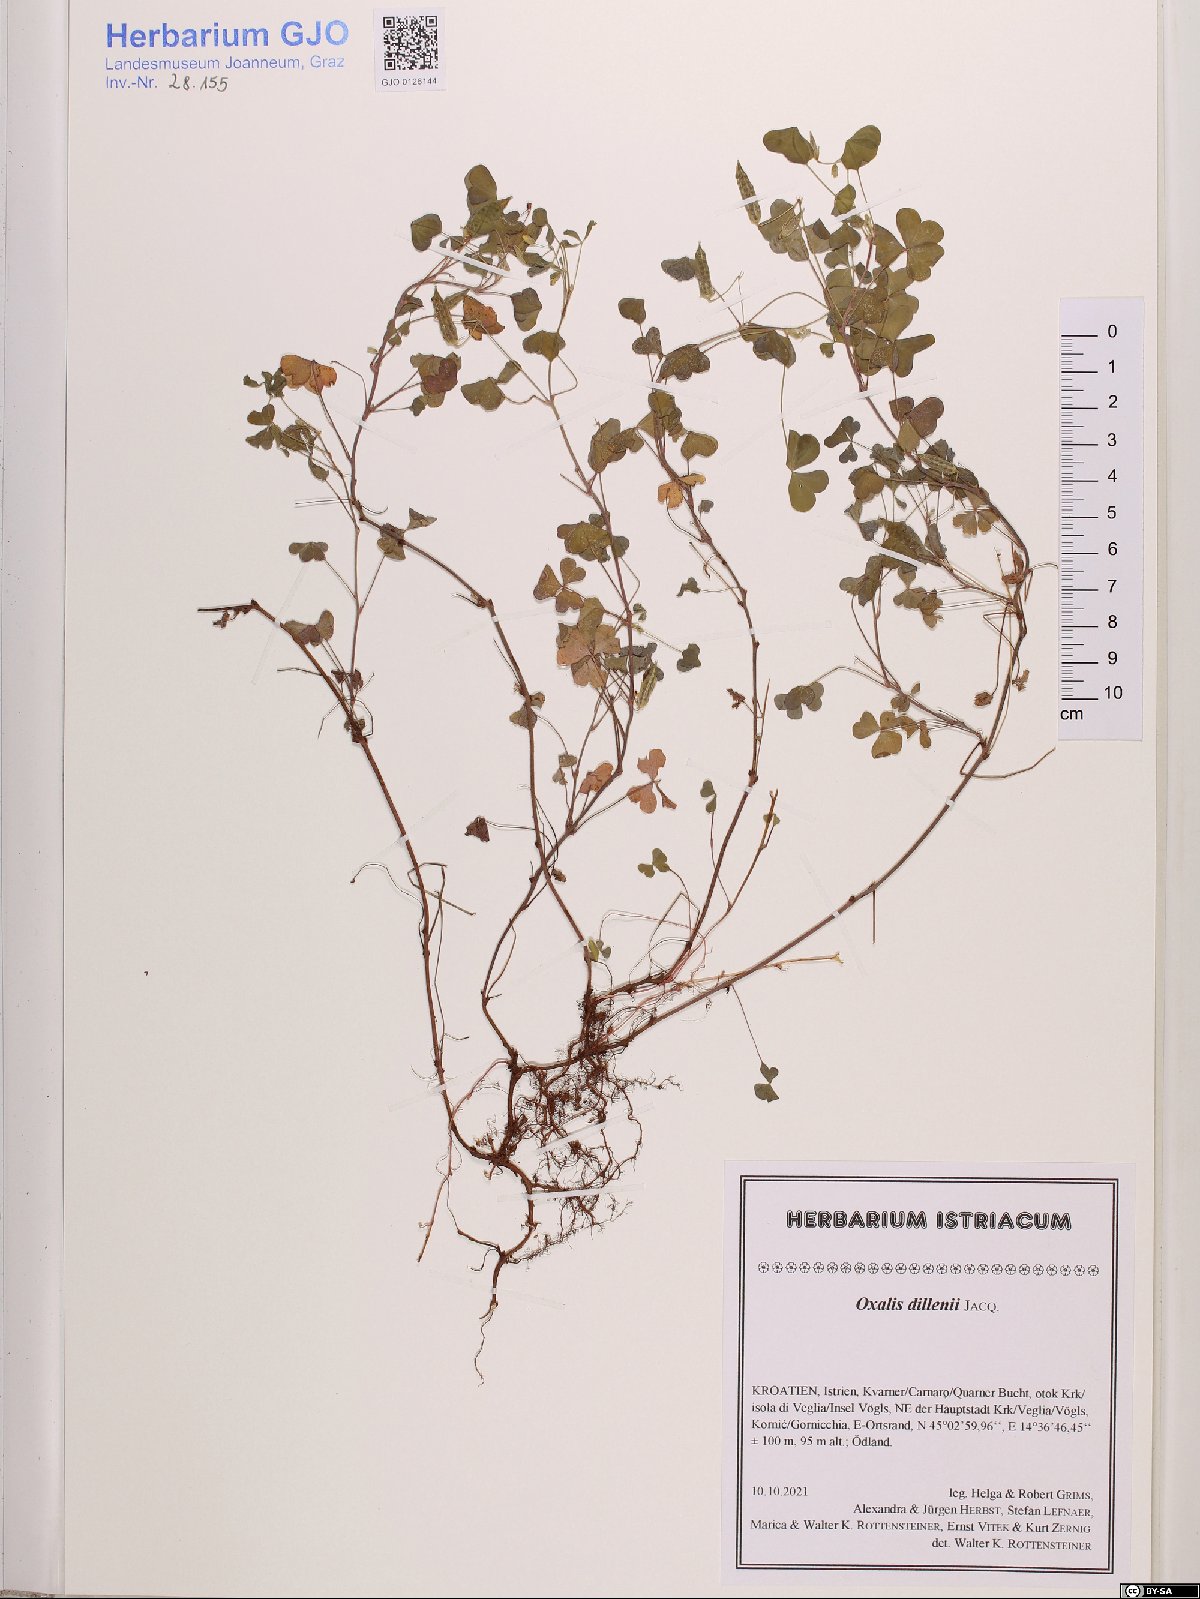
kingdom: Plantae
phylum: Tracheophyta
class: Magnoliopsida
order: Oxalidales
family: Oxalidaceae
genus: Oxalis
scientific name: Oxalis dillenii
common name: Sussex yellow-sorrel
